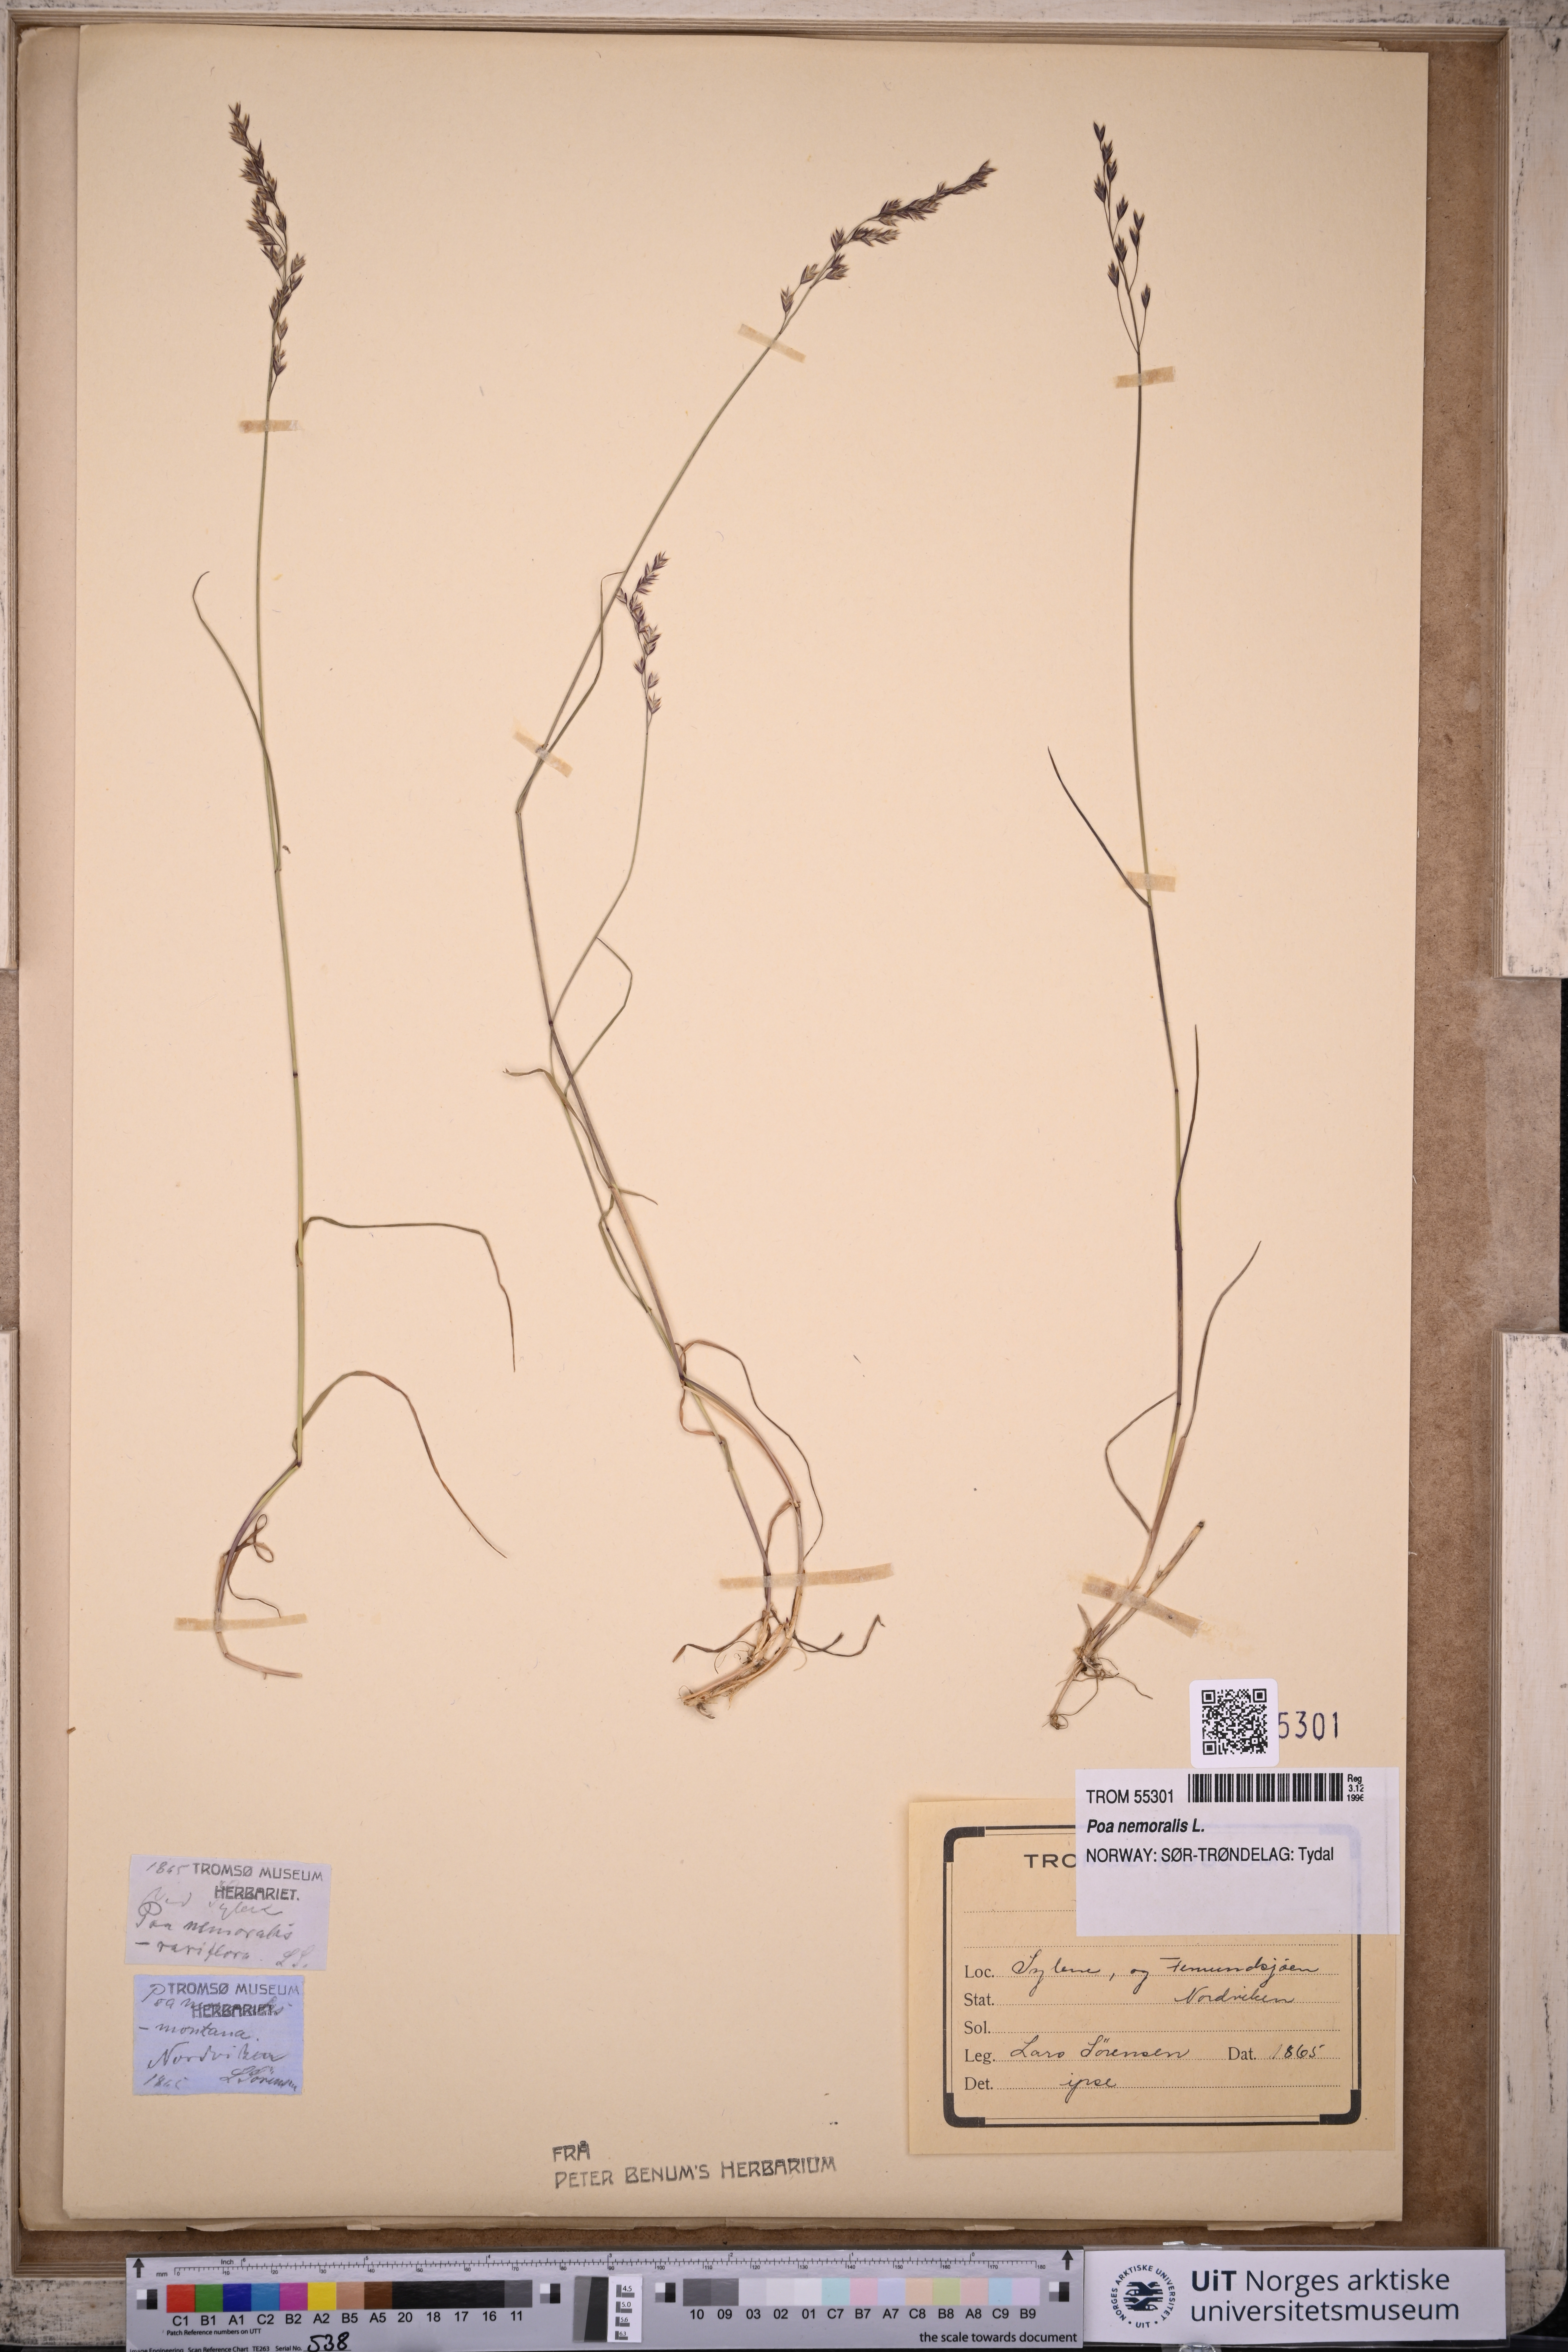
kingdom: Plantae
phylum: Tracheophyta
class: Liliopsida
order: Poales
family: Poaceae
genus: Poa
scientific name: Poa nemoralis
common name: Wood bluegrass
